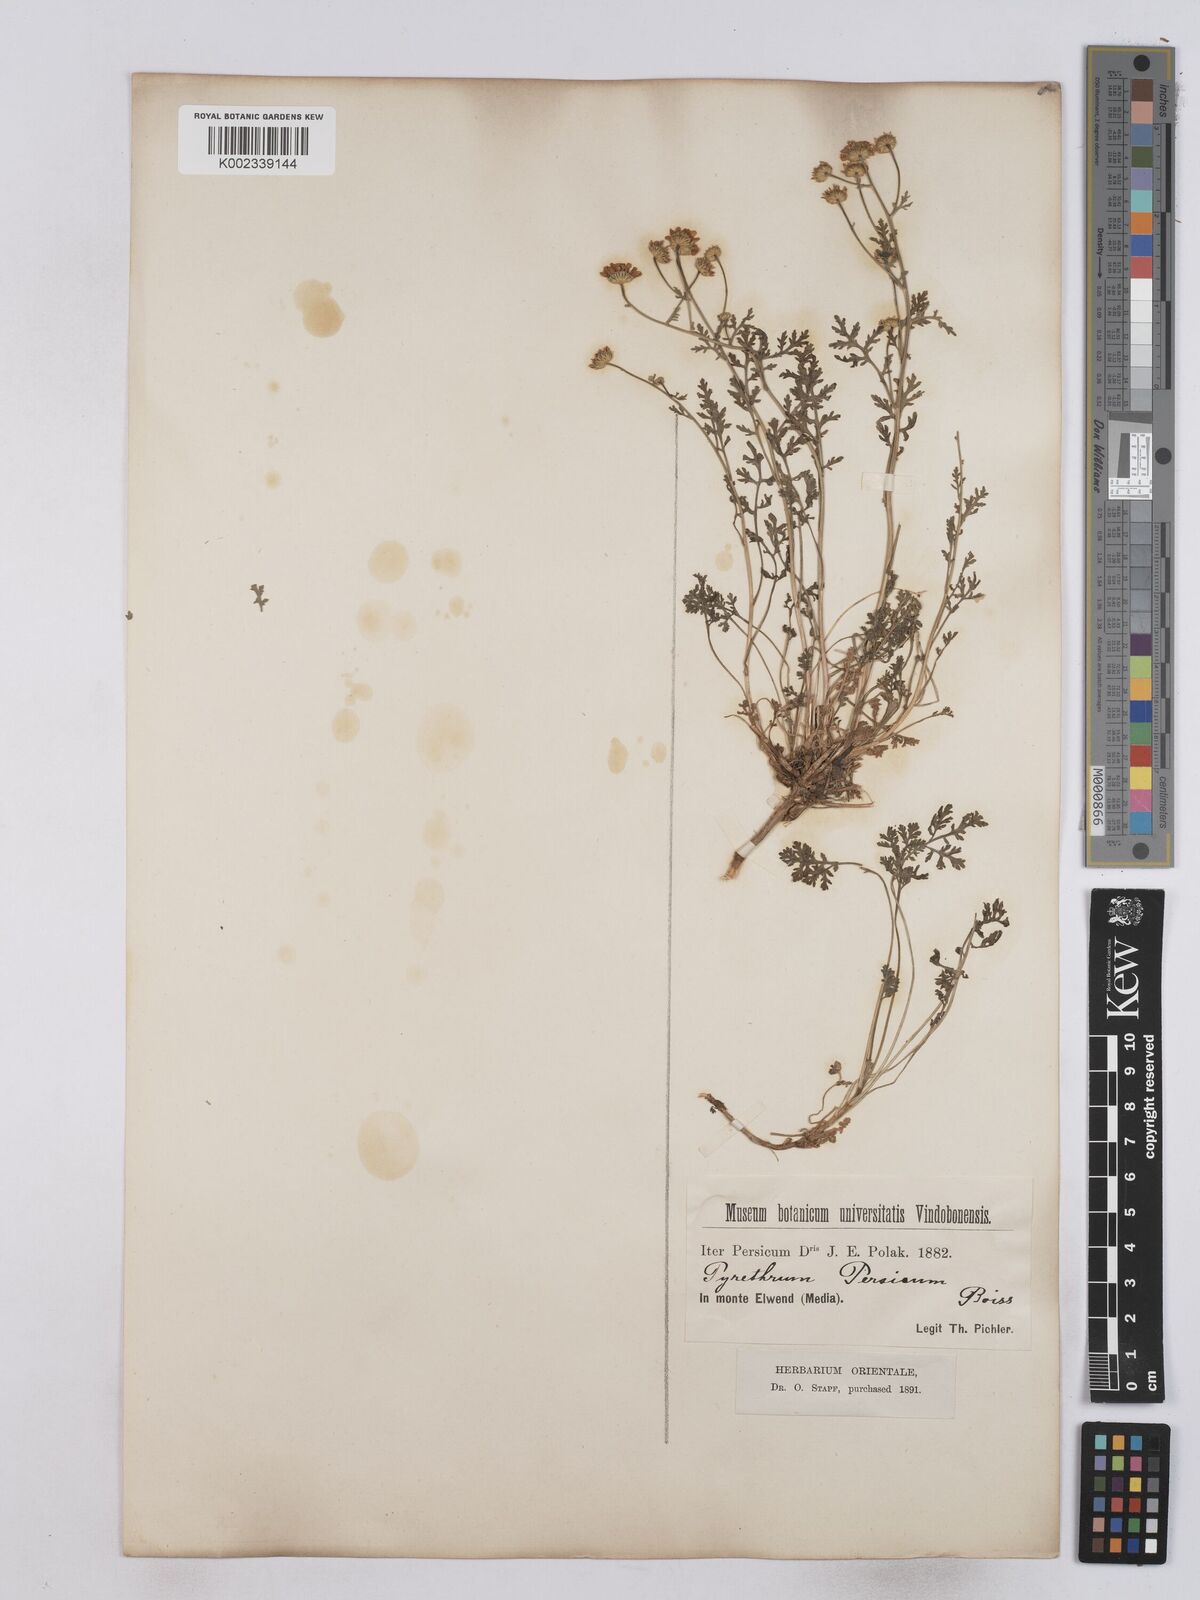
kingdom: Plantae
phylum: Tracheophyta
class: Magnoliopsida
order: Asterales
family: Asteraceae
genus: Tanacetum
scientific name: Tanacetum partheniifolium
